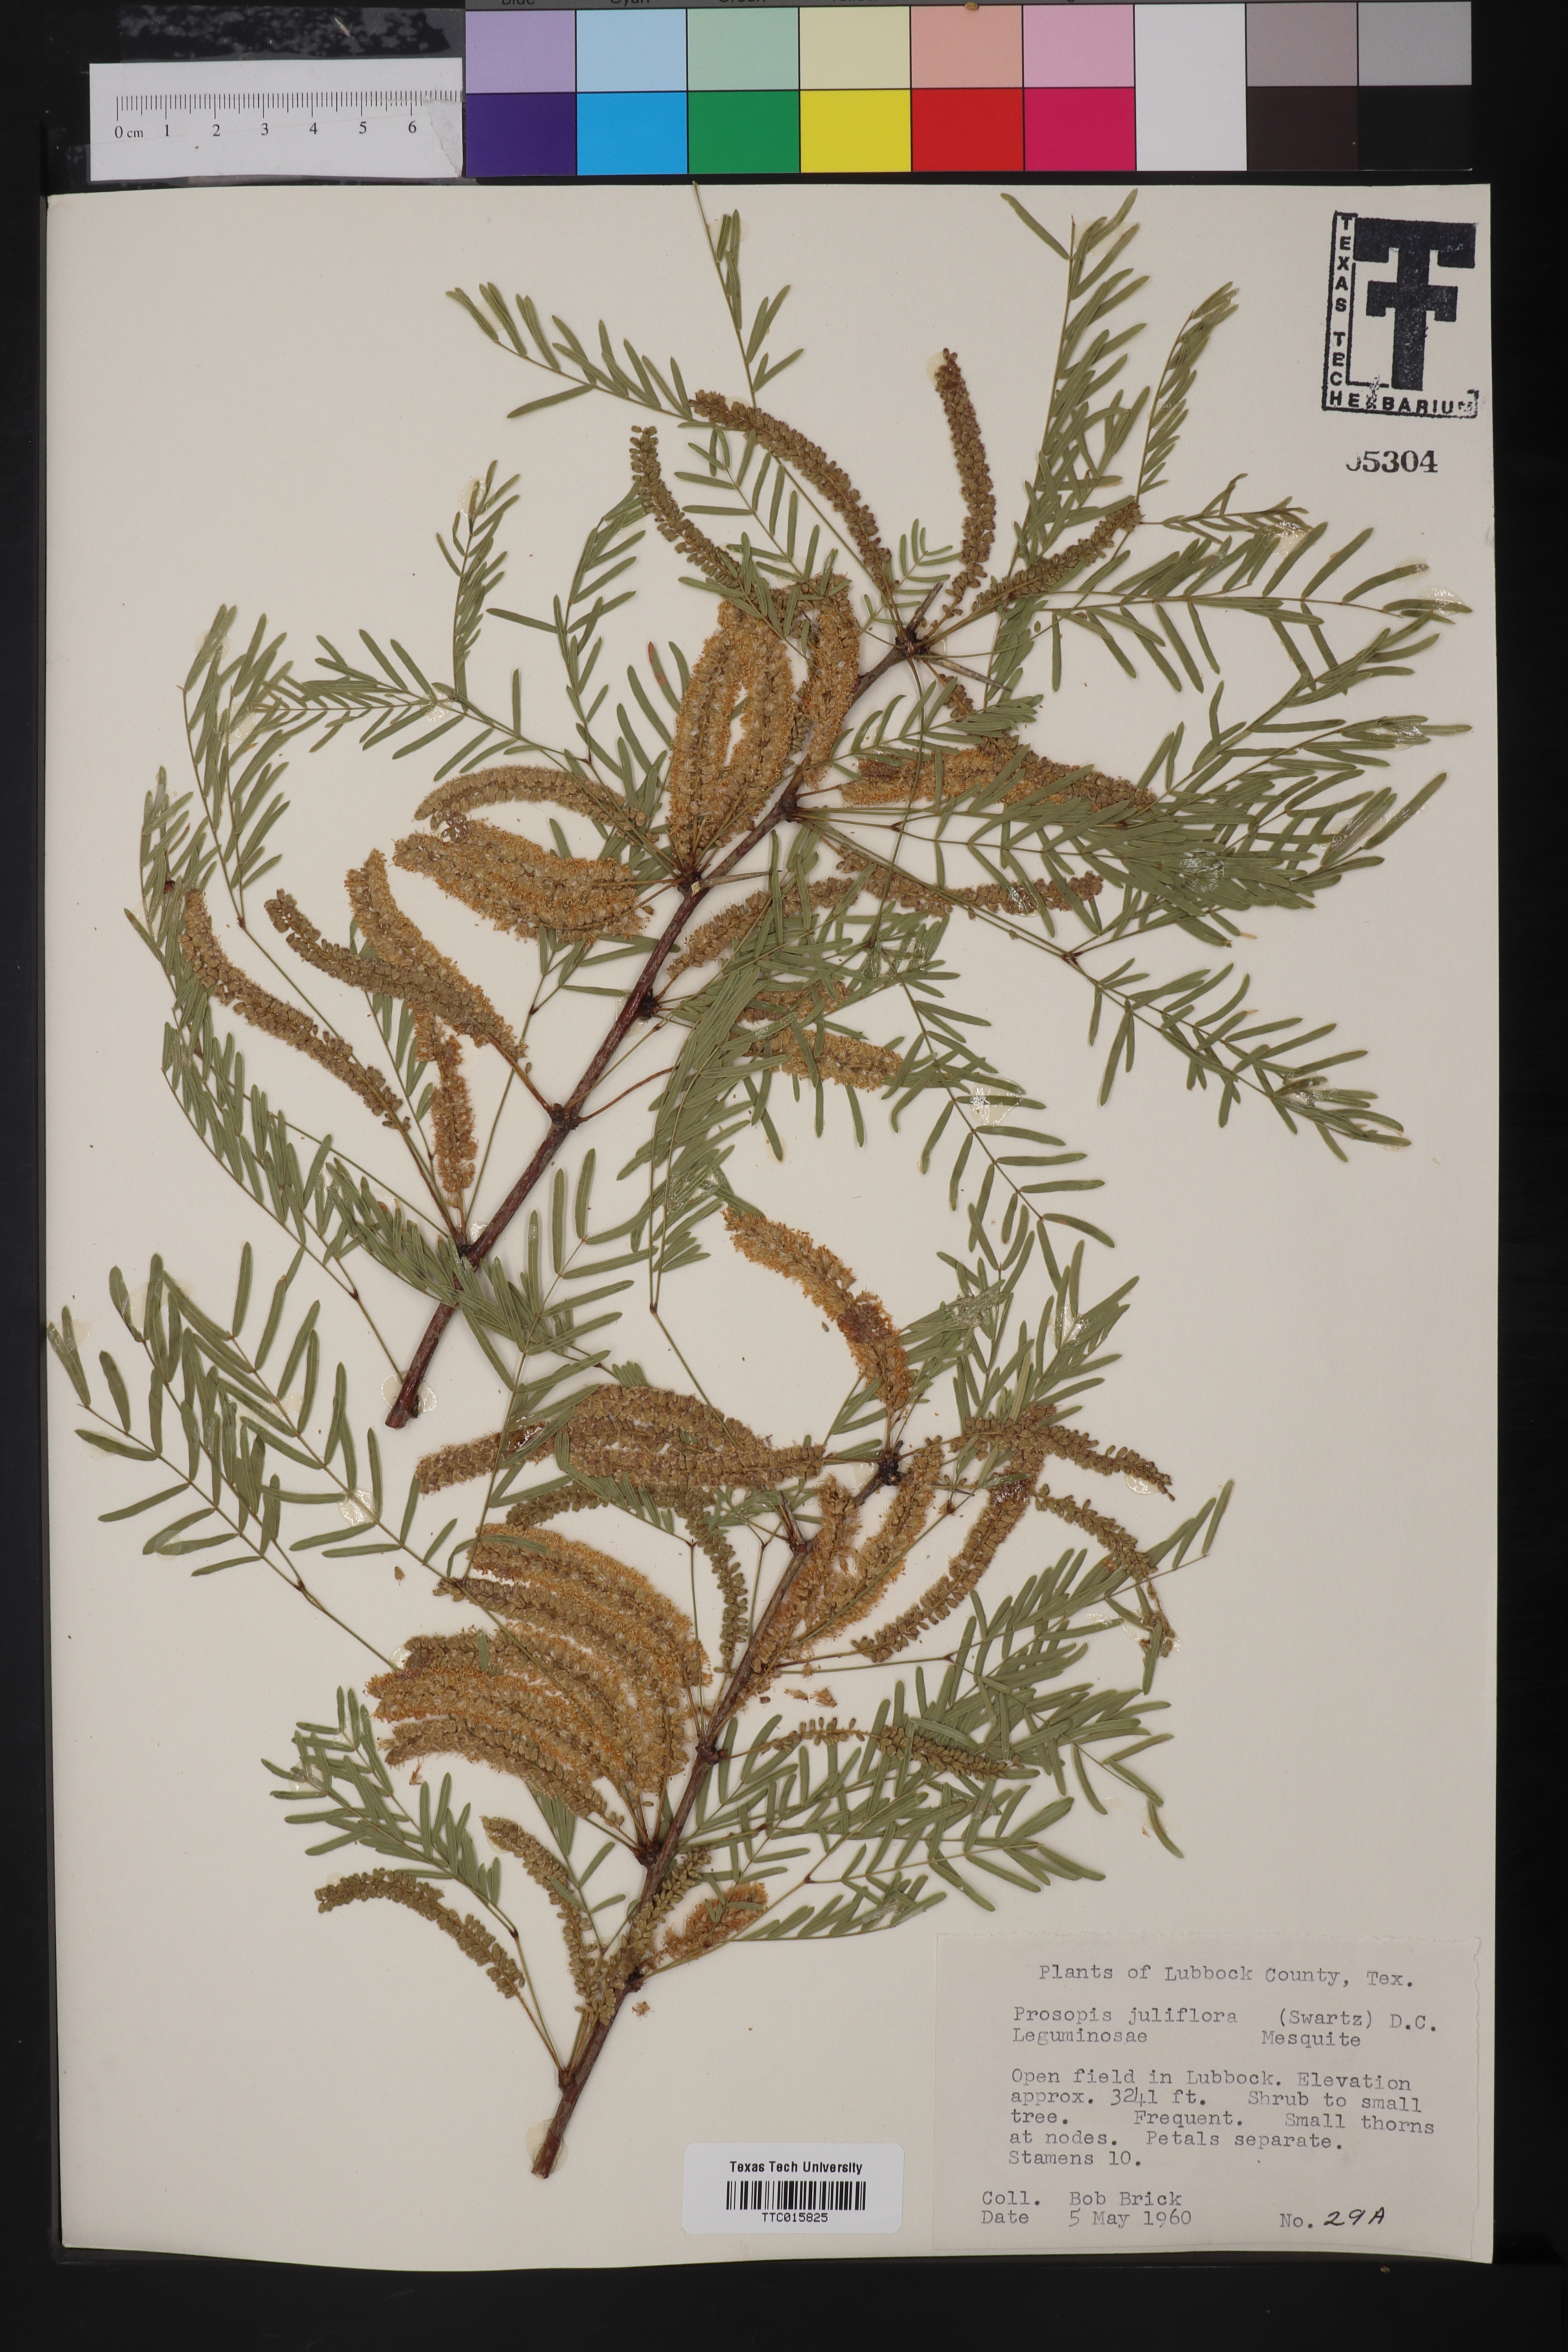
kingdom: Plantae
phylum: Tracheophyta
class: Magnoliopsida
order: Fabales
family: Fabaceae
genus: Prosopis
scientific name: Prosopis juliflora
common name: Mesquite
